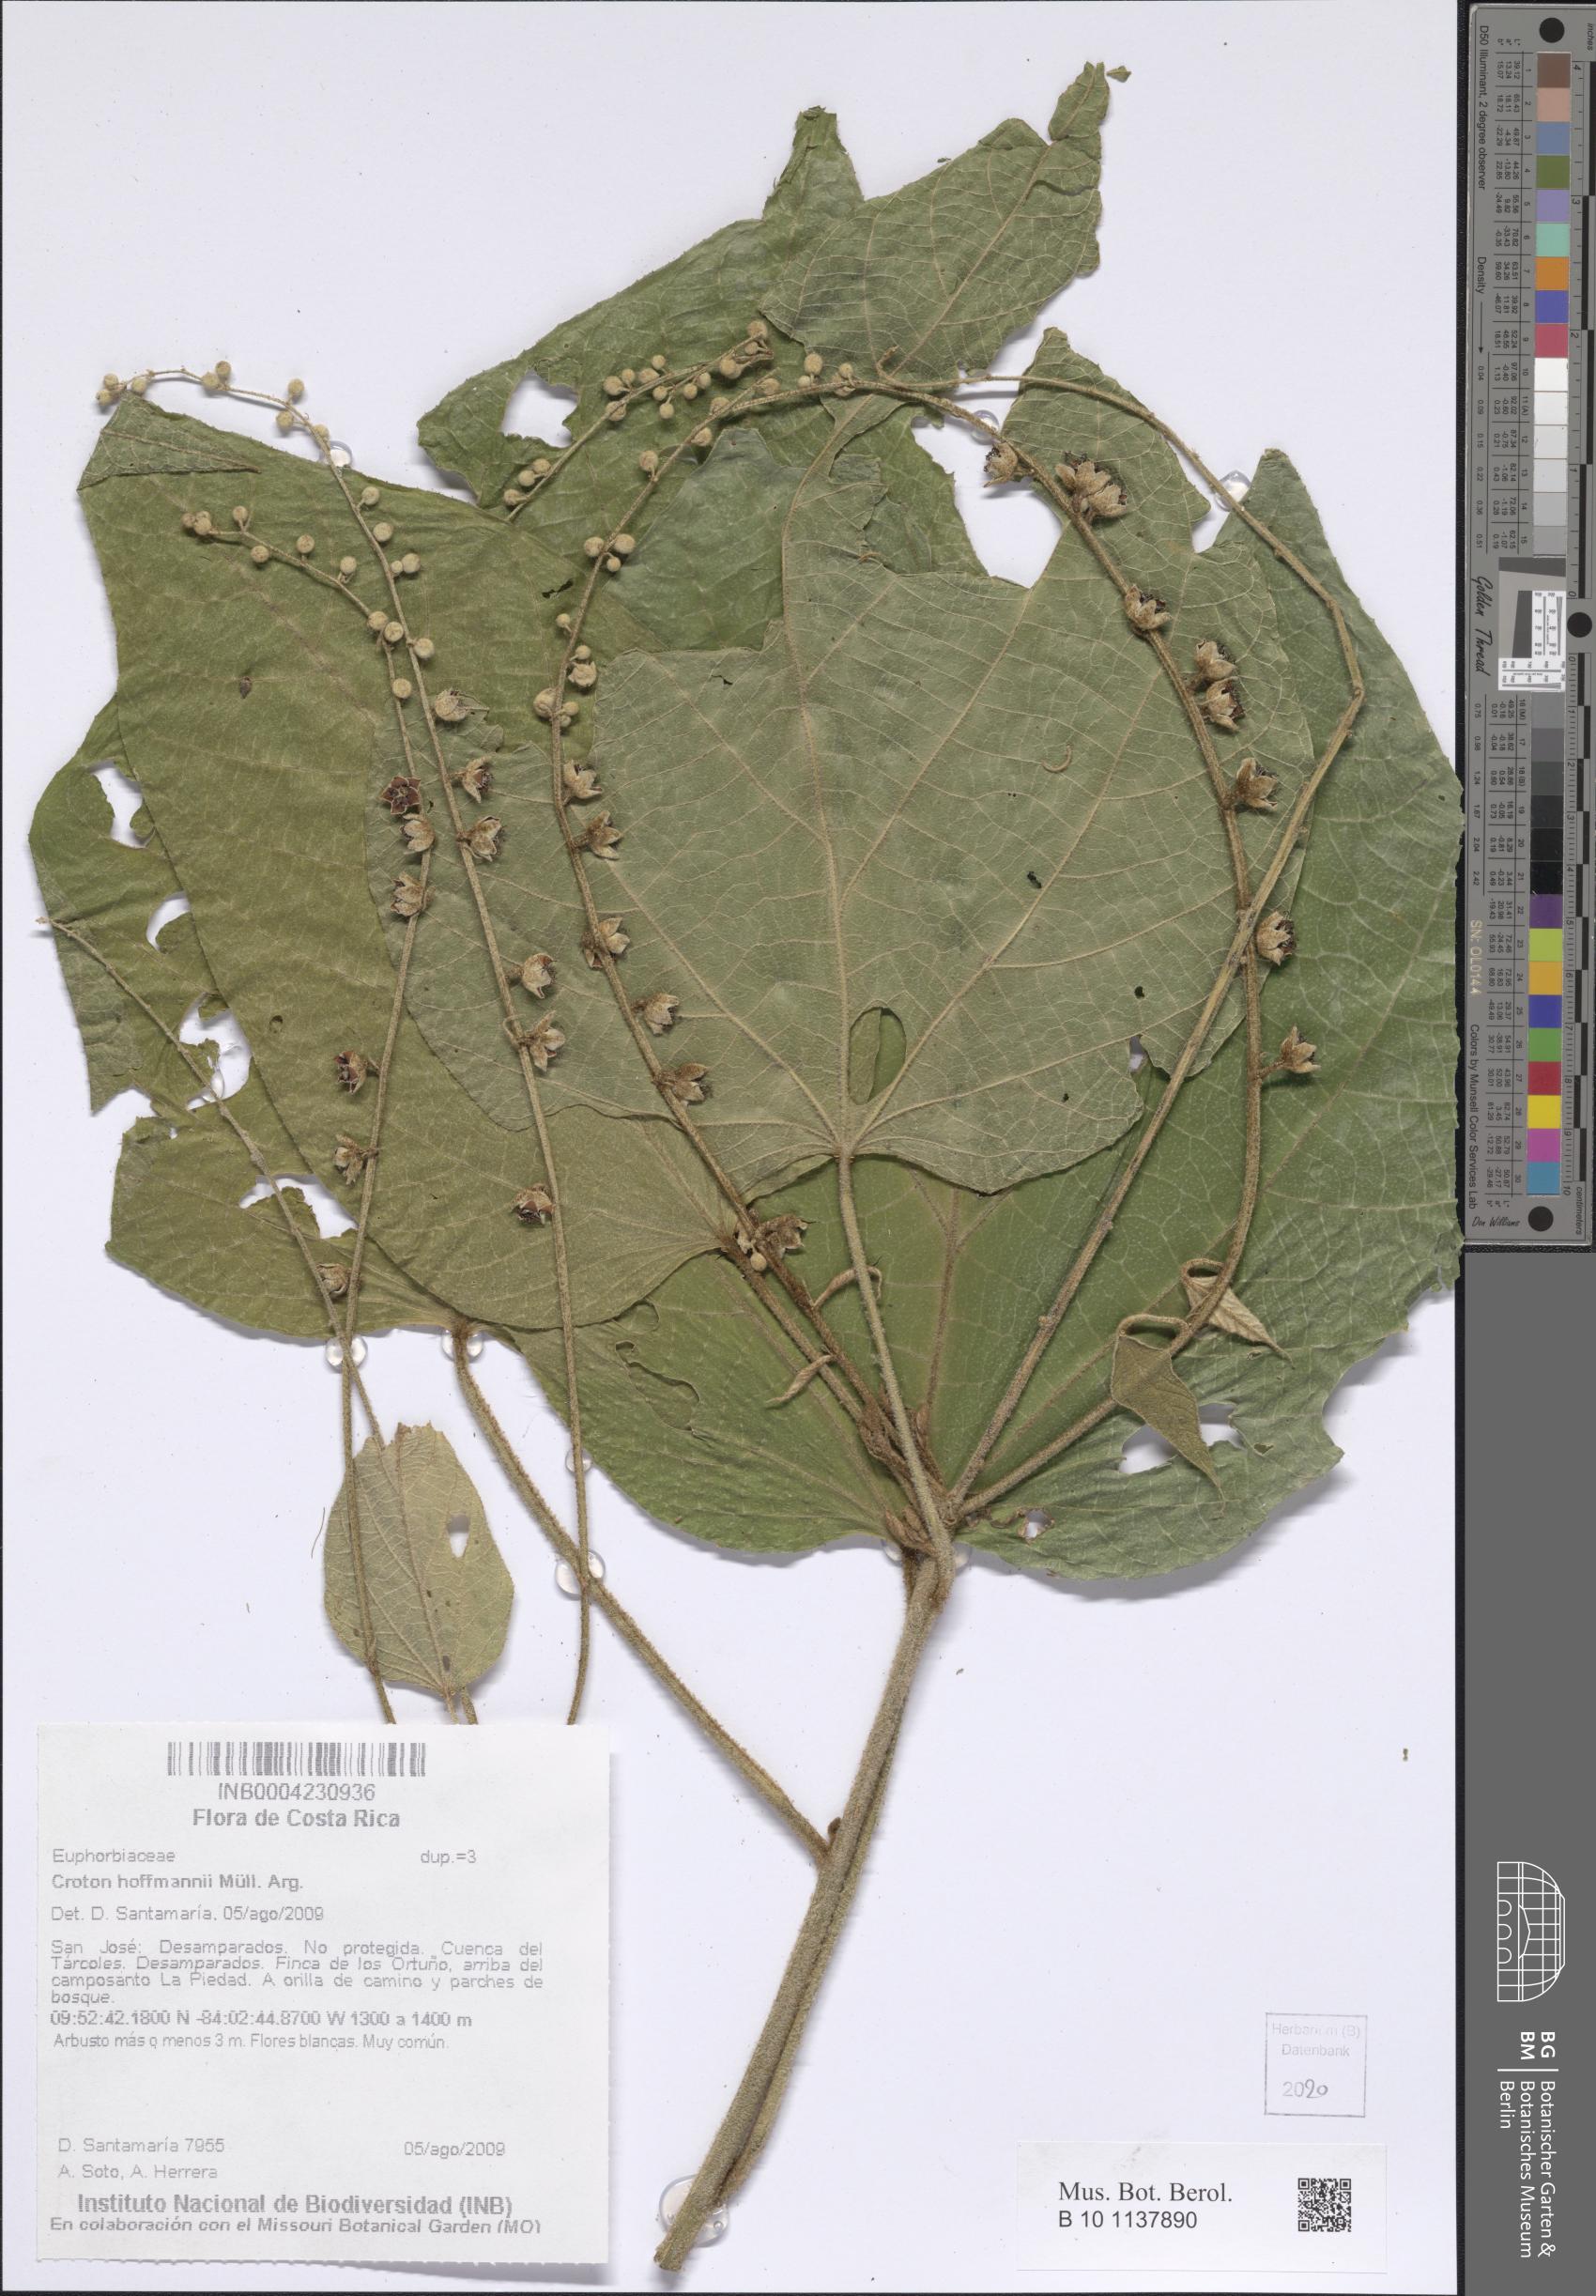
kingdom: Plantae
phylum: Tracheophyta
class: Magnoliopsida
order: Malpighiales
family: Euphorbiaceae
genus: Croton
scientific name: Croton hoffmannii
